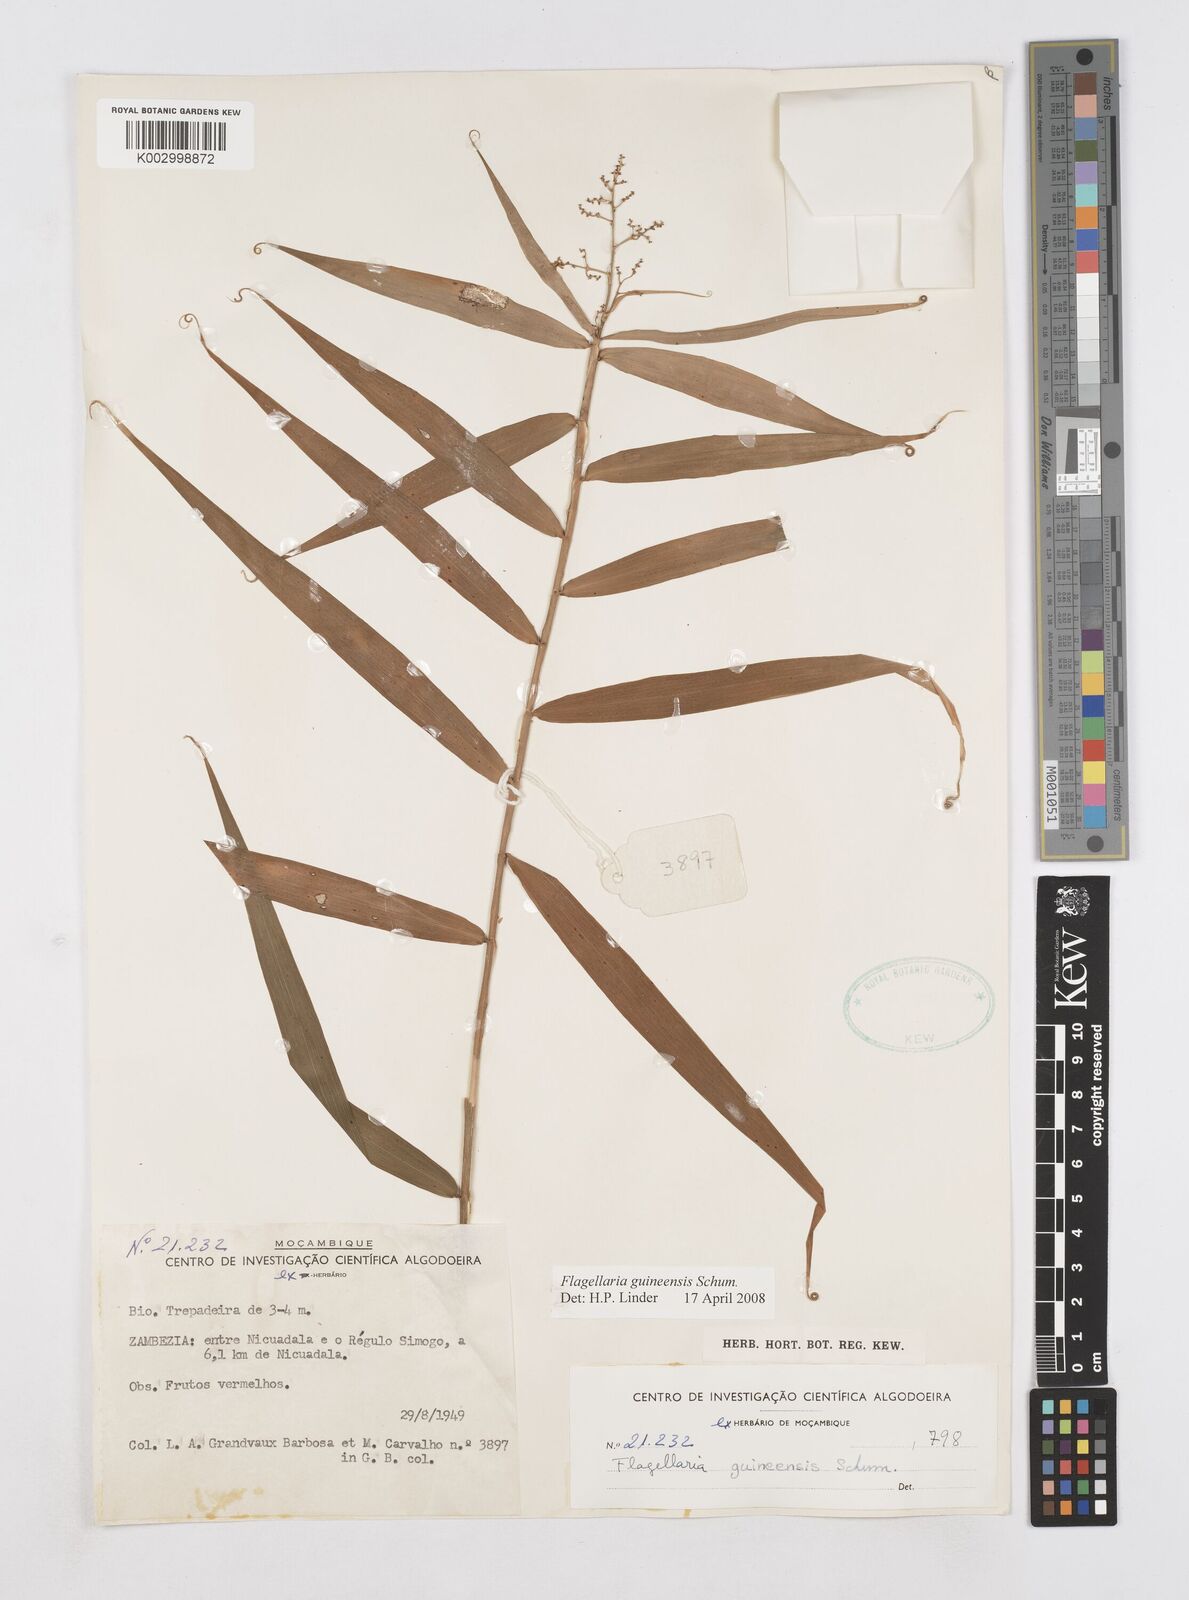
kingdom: Plantae
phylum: Tracheophyta
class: Liliopsida
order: Poales
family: Flagellariaceae
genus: Flagellaria
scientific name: Flagellaria guineensis
